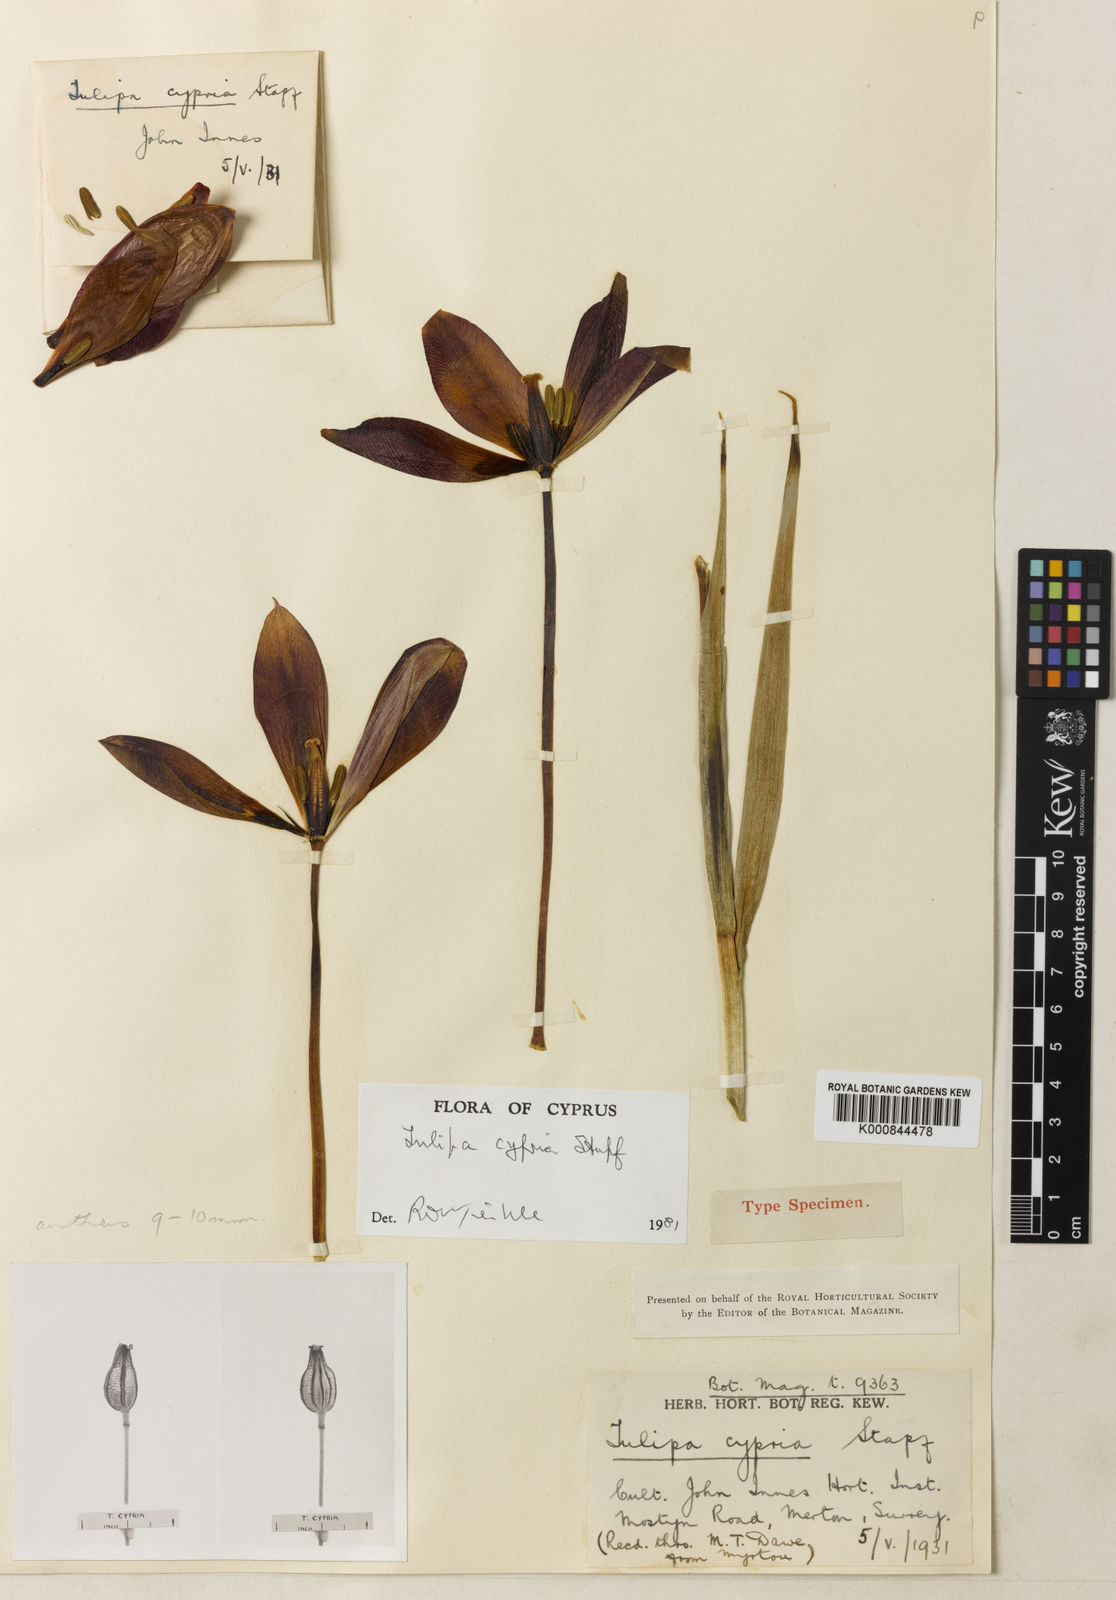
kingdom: Plantae
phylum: Tracheophyta
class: Liliopsida
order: Liliales
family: Liliaceae
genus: Tulipa
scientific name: Tulipa cypria
